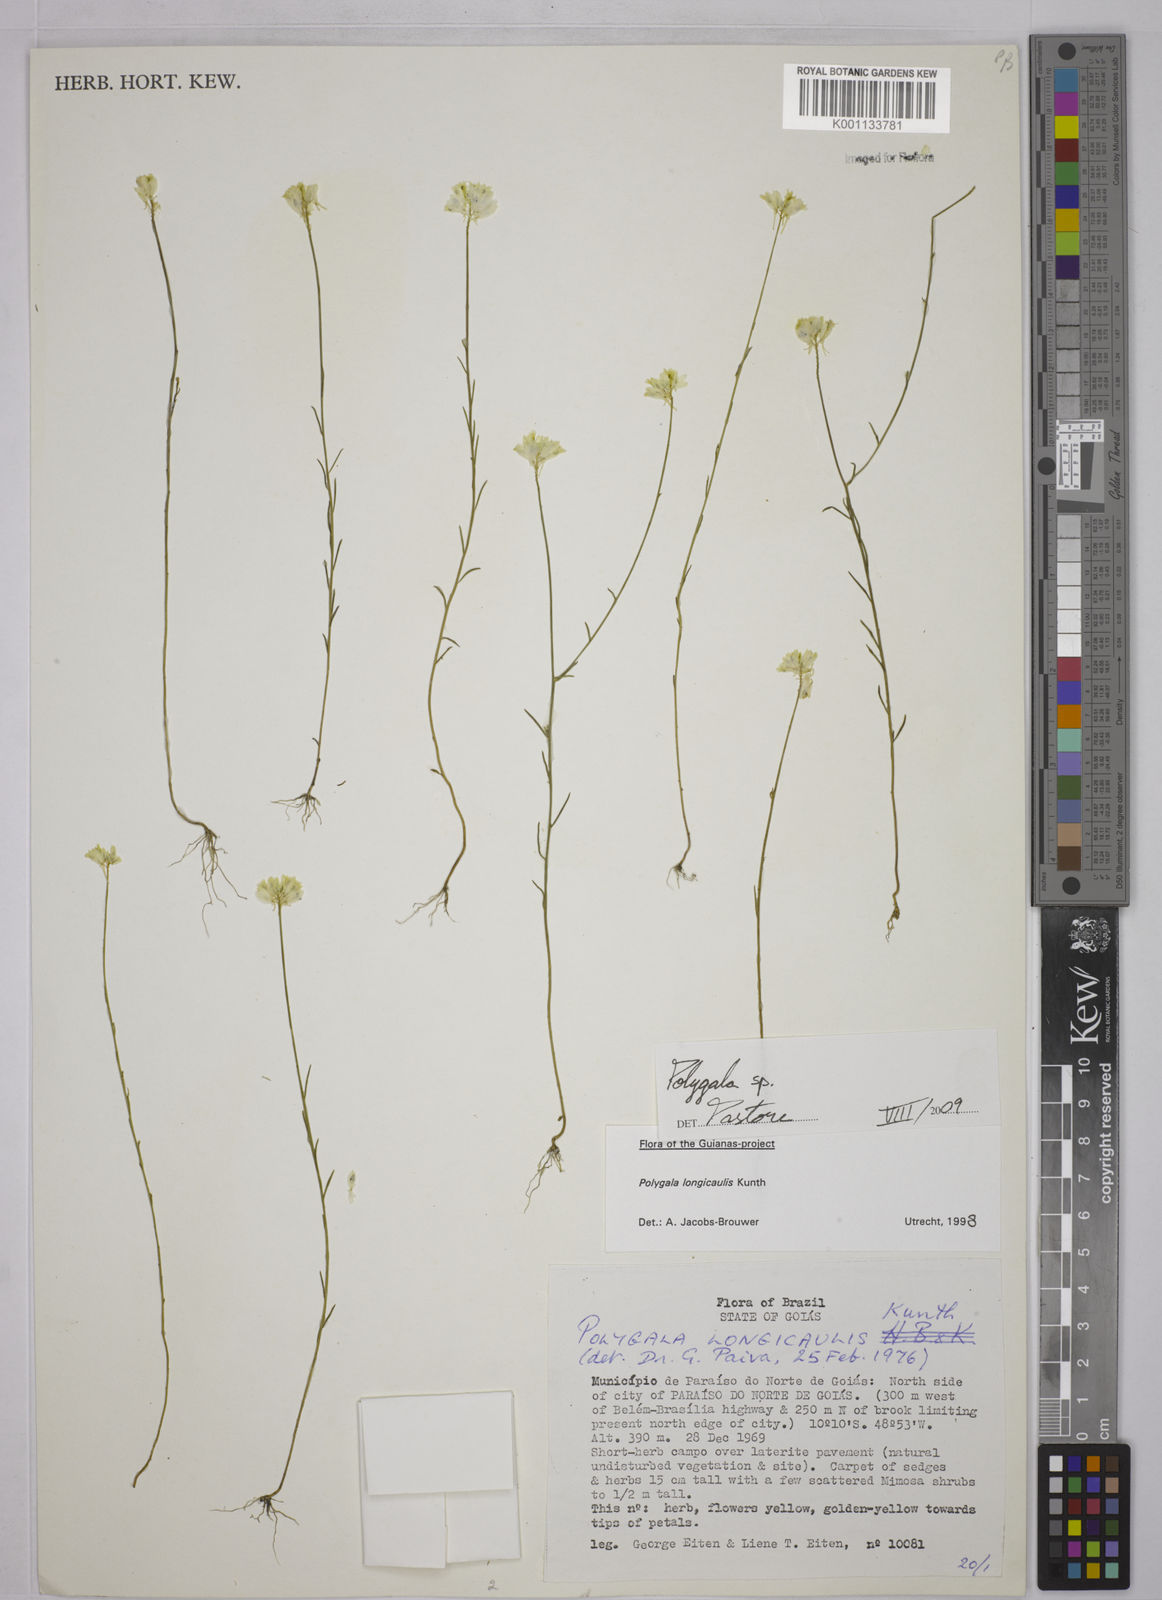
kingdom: Plantae
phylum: Tracheophyta
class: Magnoliopsida
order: Fabales
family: Polygalaceae
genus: Polygala
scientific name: Polygala
